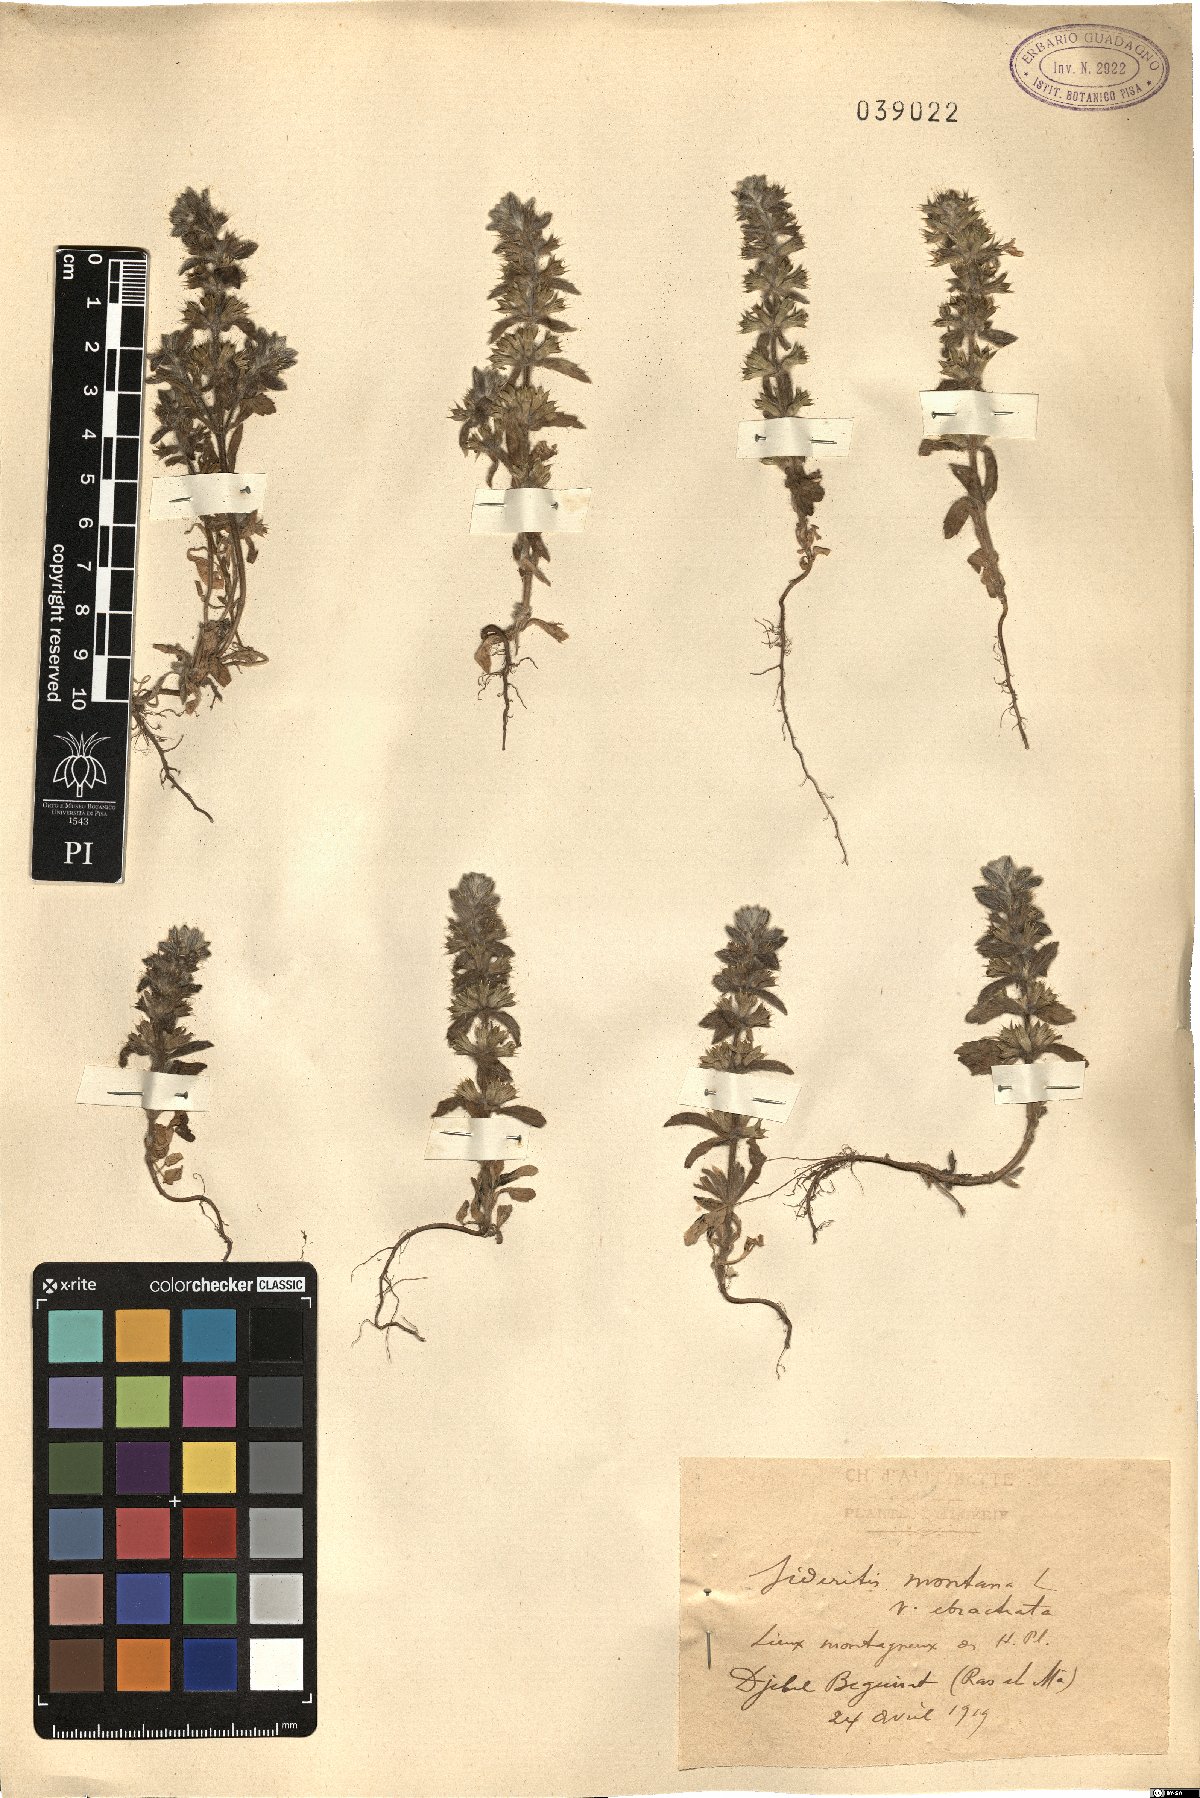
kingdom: Plantae
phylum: Tracheophyta
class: Magnoliopsida
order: Lamiales
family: Lamiaceae
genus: Sideritis
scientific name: Sideritis montana
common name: Mountain ironwort
